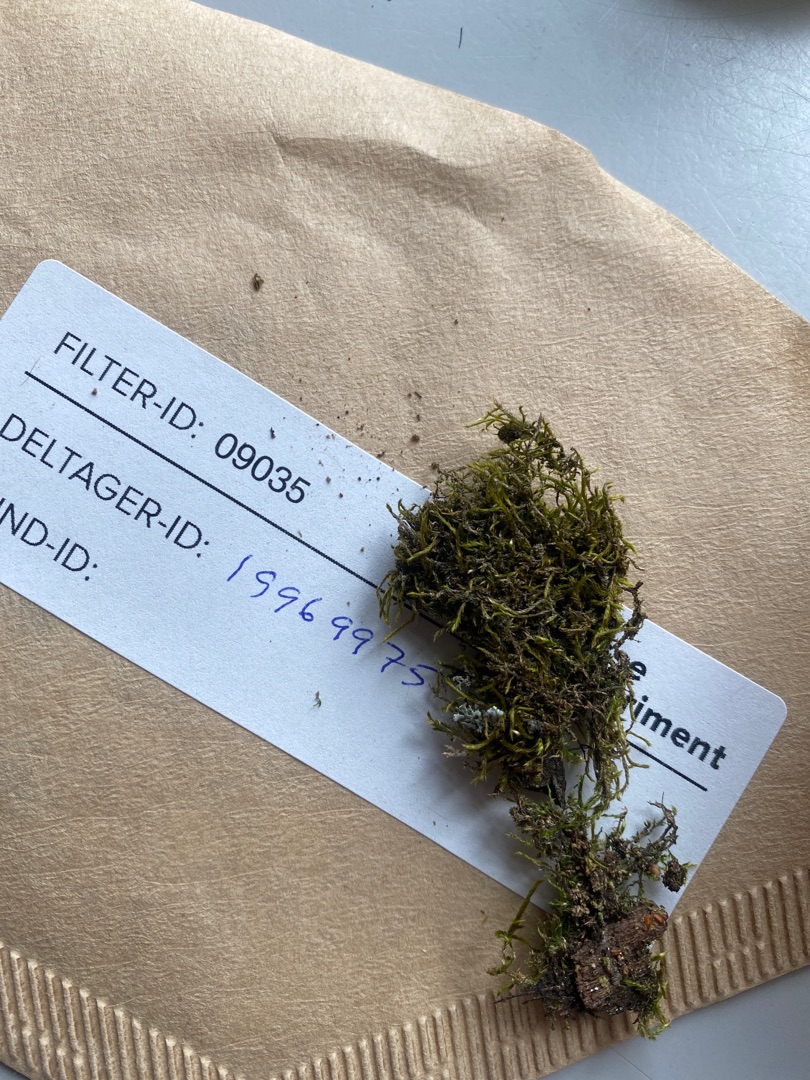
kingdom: Plantae
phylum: Bryophyta
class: Bryopsida
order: Hypnales
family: Hypnaceae
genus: Hypnum
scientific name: Hypnum
